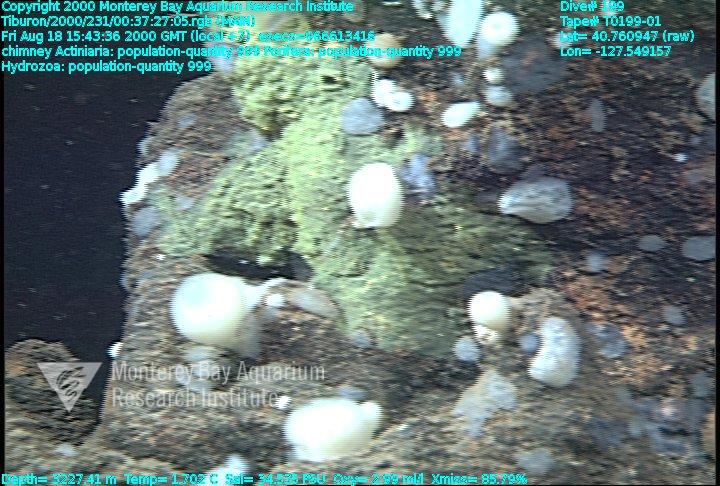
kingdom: Animalia
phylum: Porifera
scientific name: Porifera
